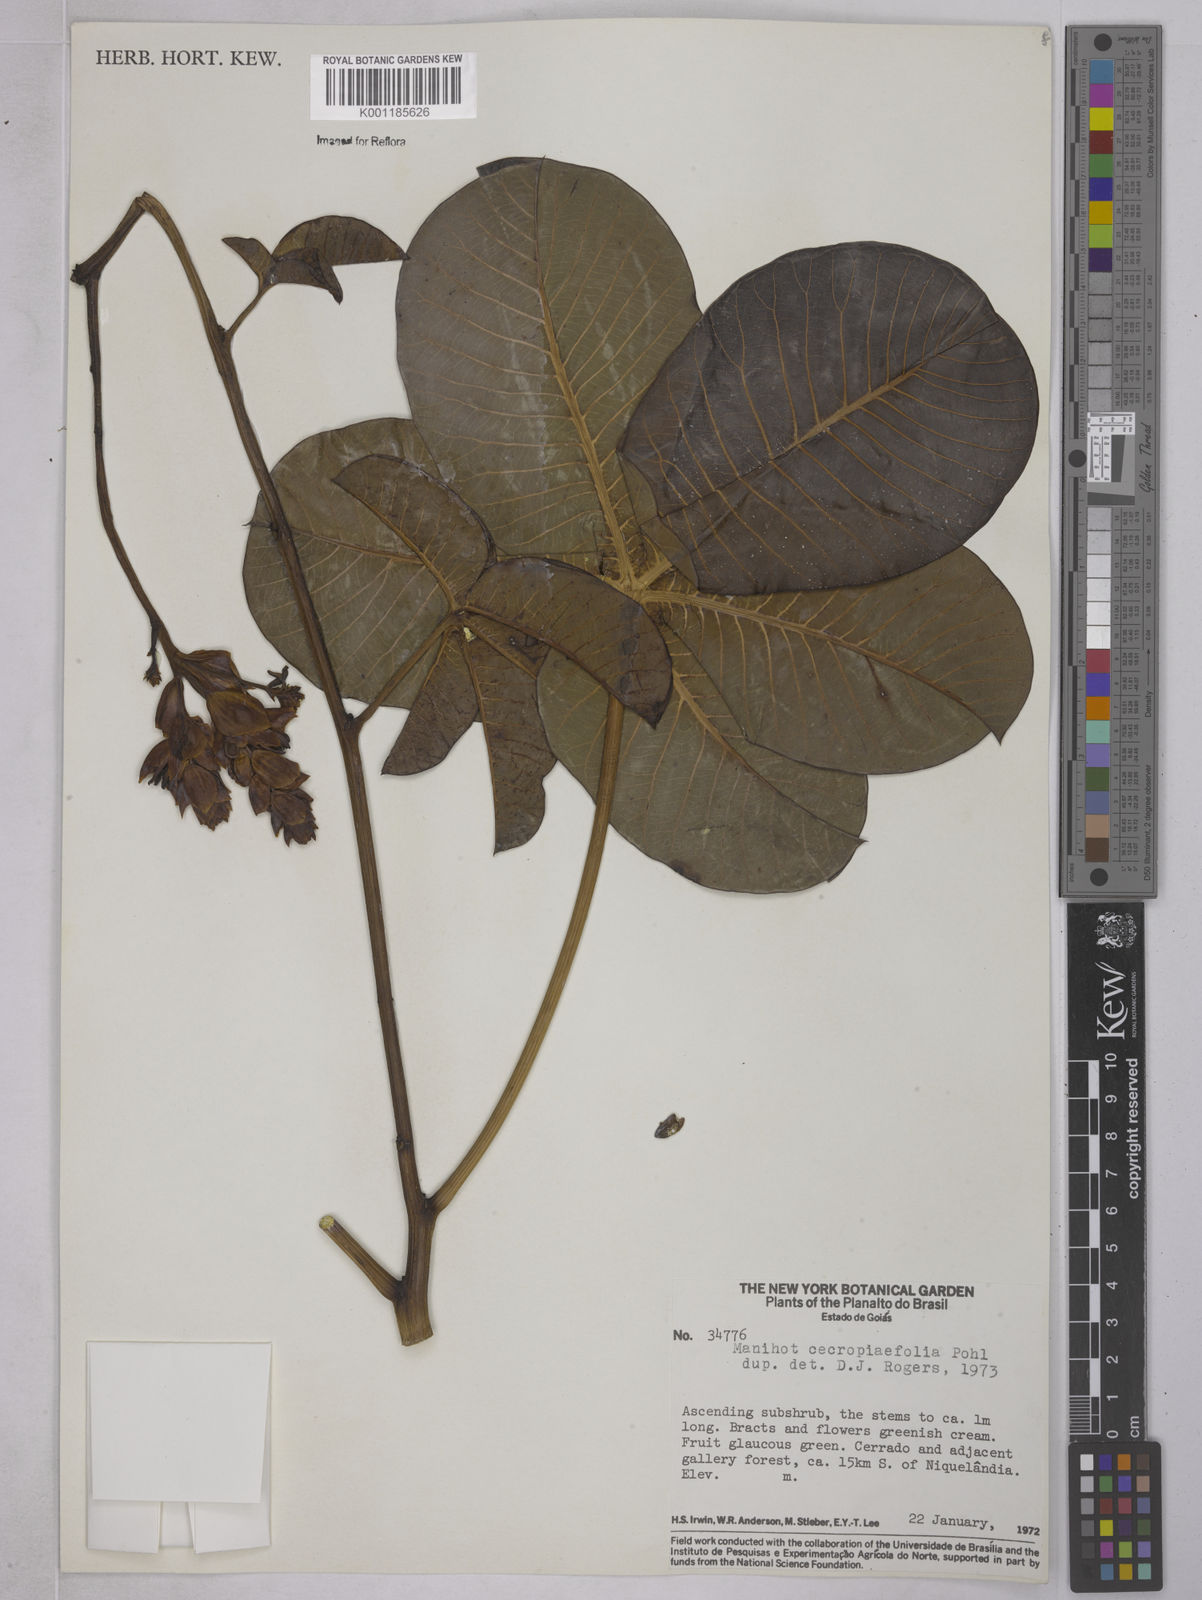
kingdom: Plantae
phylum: Tracheophyta
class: Magnoliopsida
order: Malpighiales
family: Euphorbiaceae
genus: Manihot
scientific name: Manihot cecropiifolia
